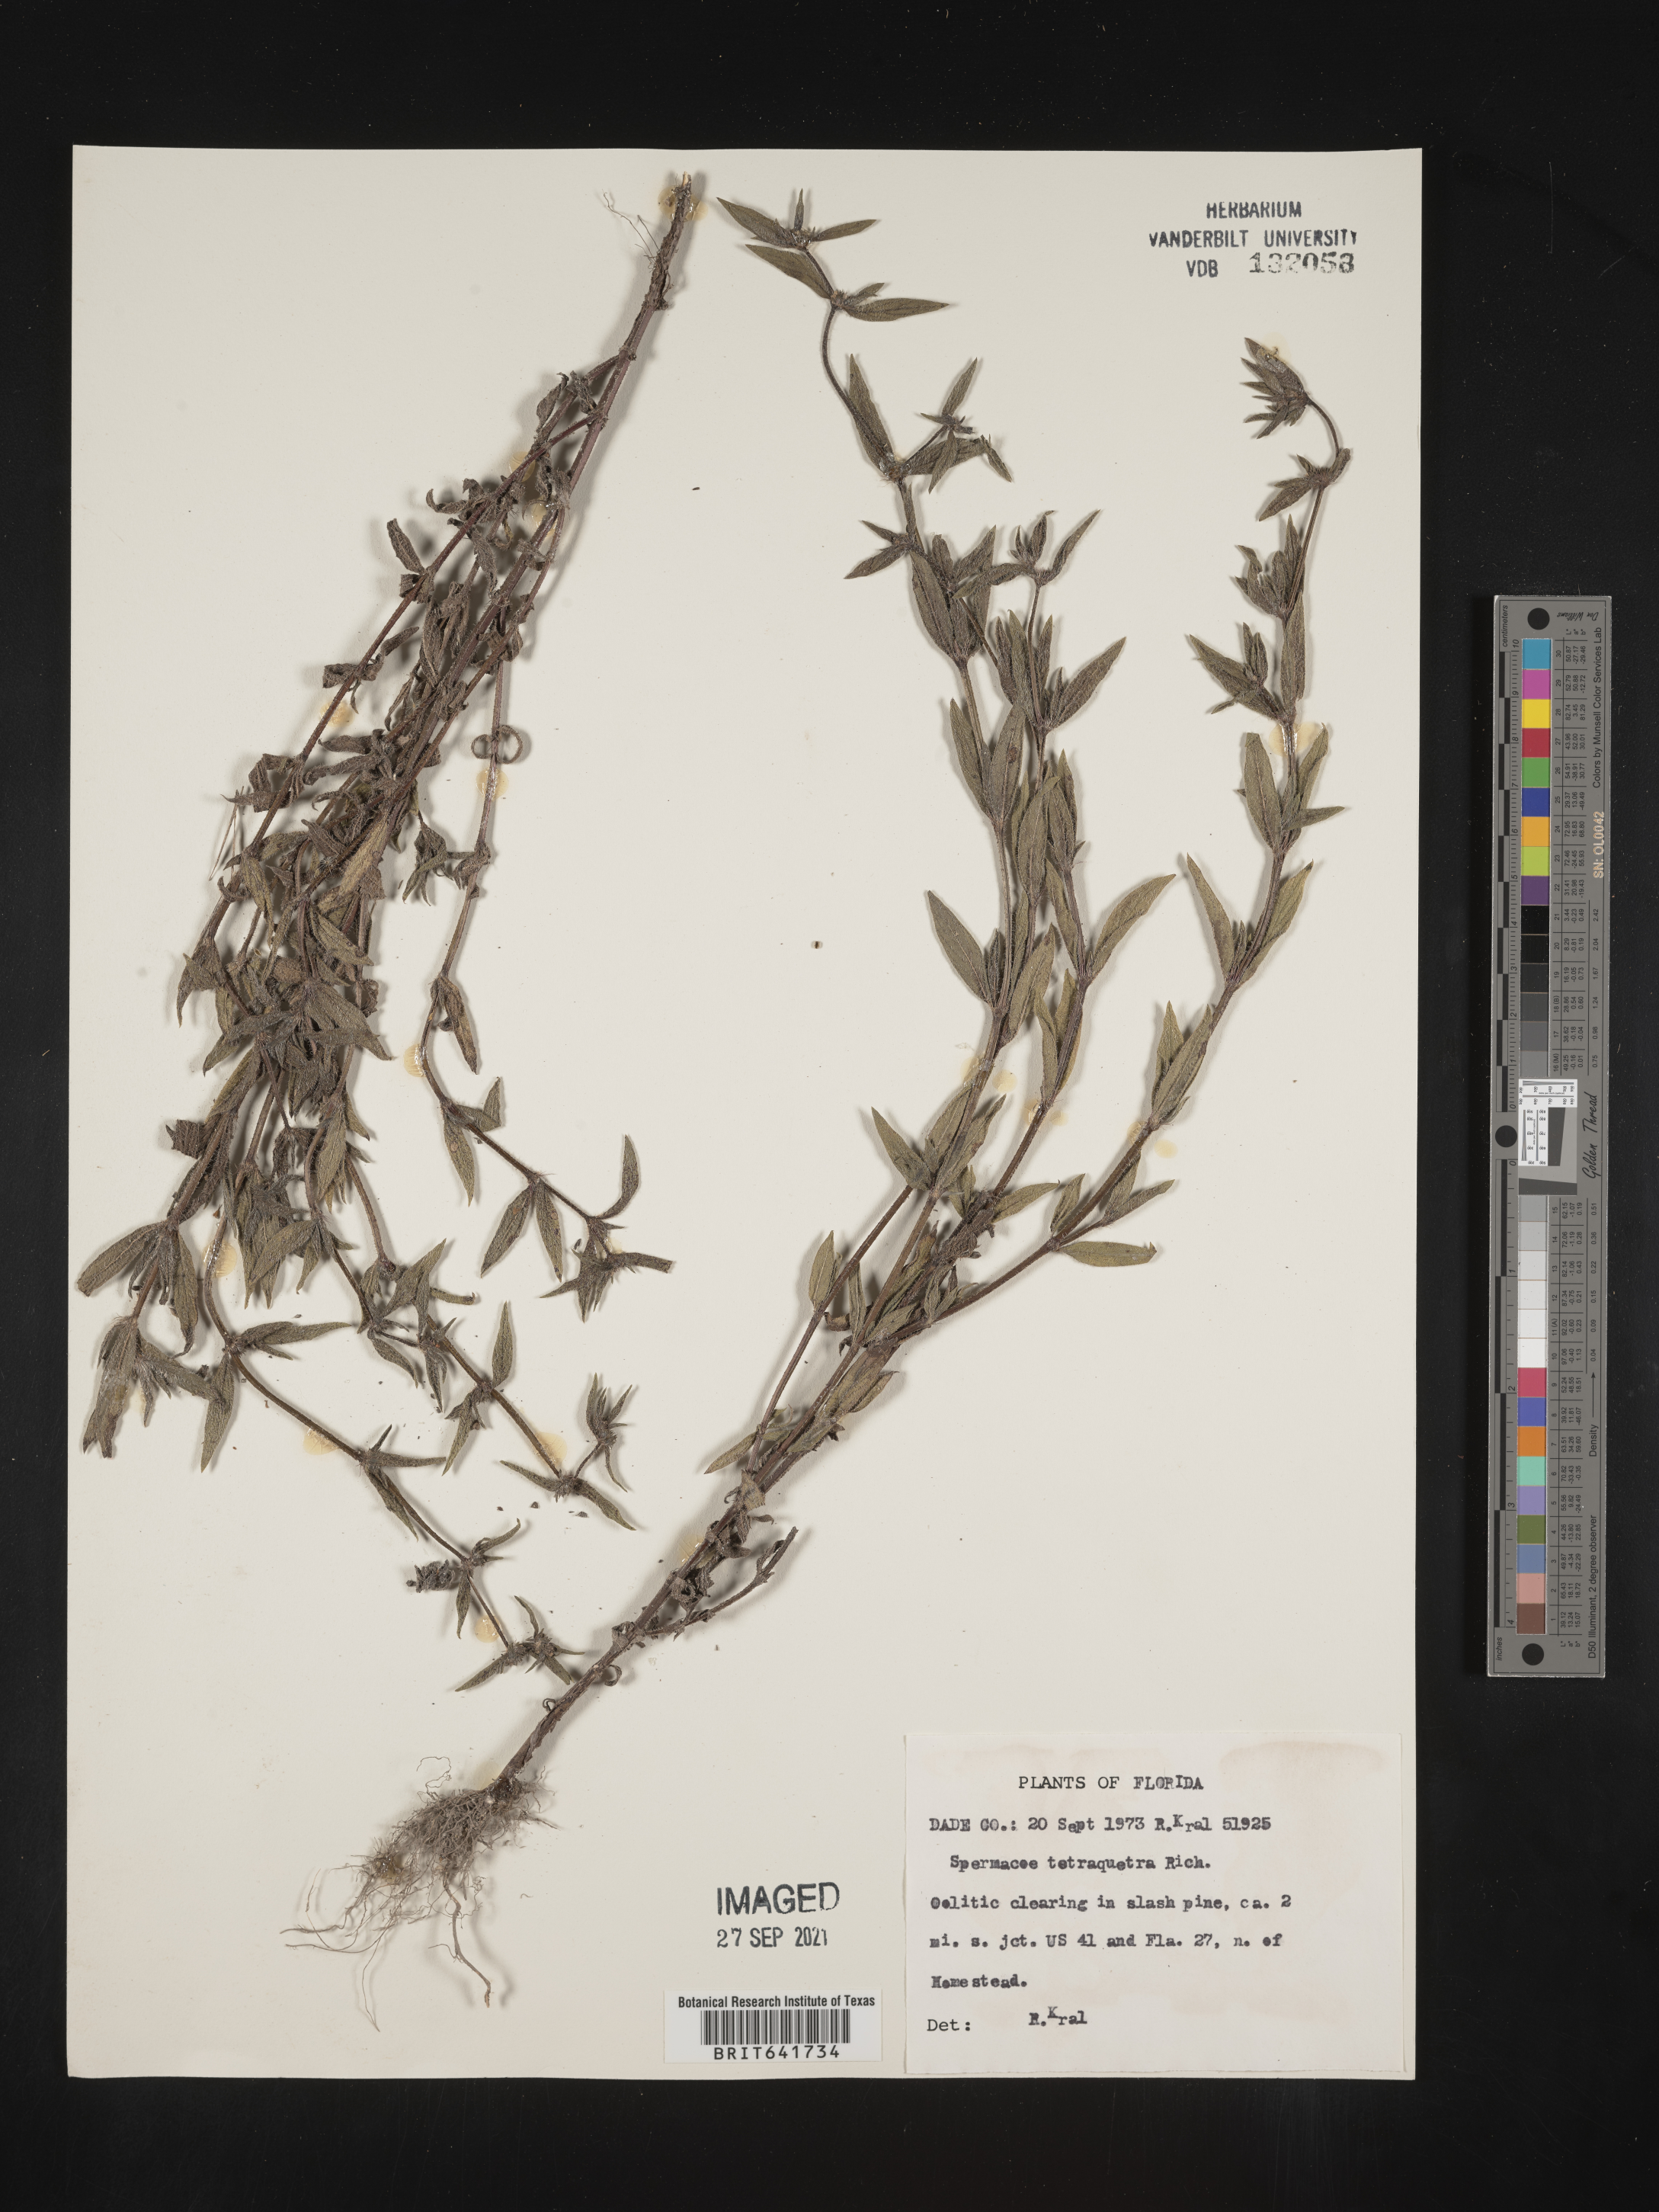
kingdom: Plantae
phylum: Tracheophyta
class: Magnoliopsida
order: Gentianales
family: Rubiaceae
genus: Spermacoce
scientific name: Spermacoce tetraquetra
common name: Pineland false buttonweed
